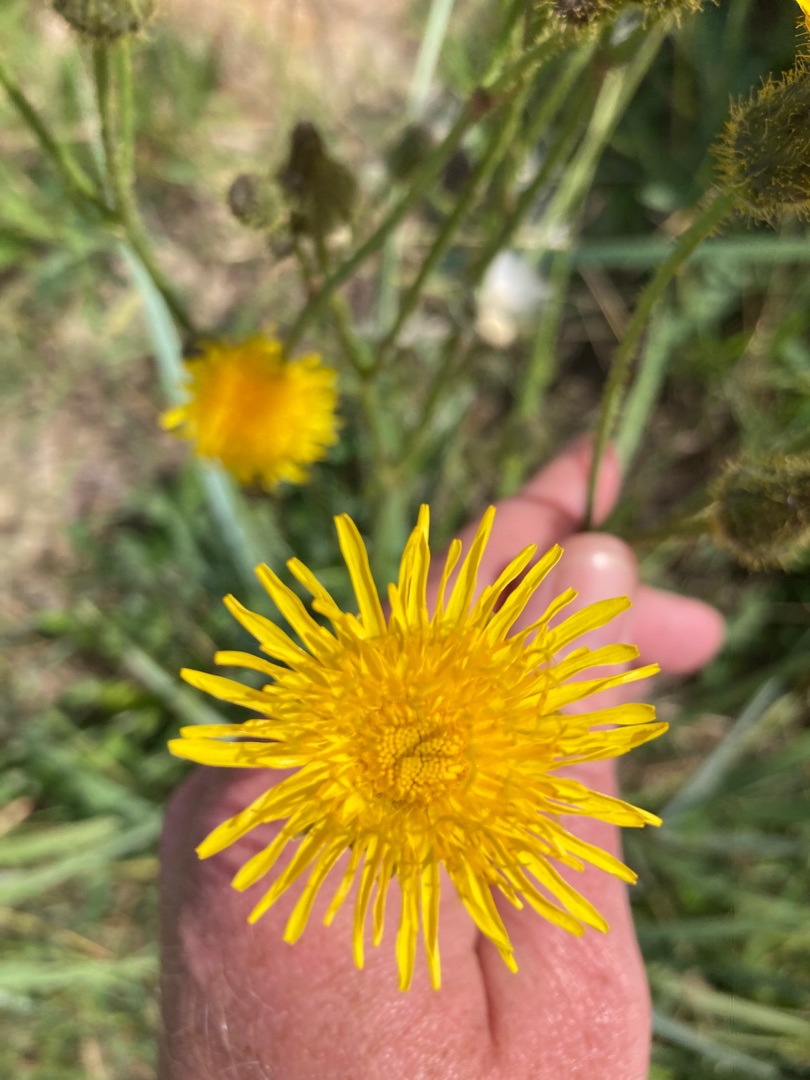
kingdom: Plantae
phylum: Tracheophyta
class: Magnoliopsida
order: Asterales
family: Asteraceae
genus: Sonchus
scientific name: Sonchus arvensis
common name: Ager-svinemælk
